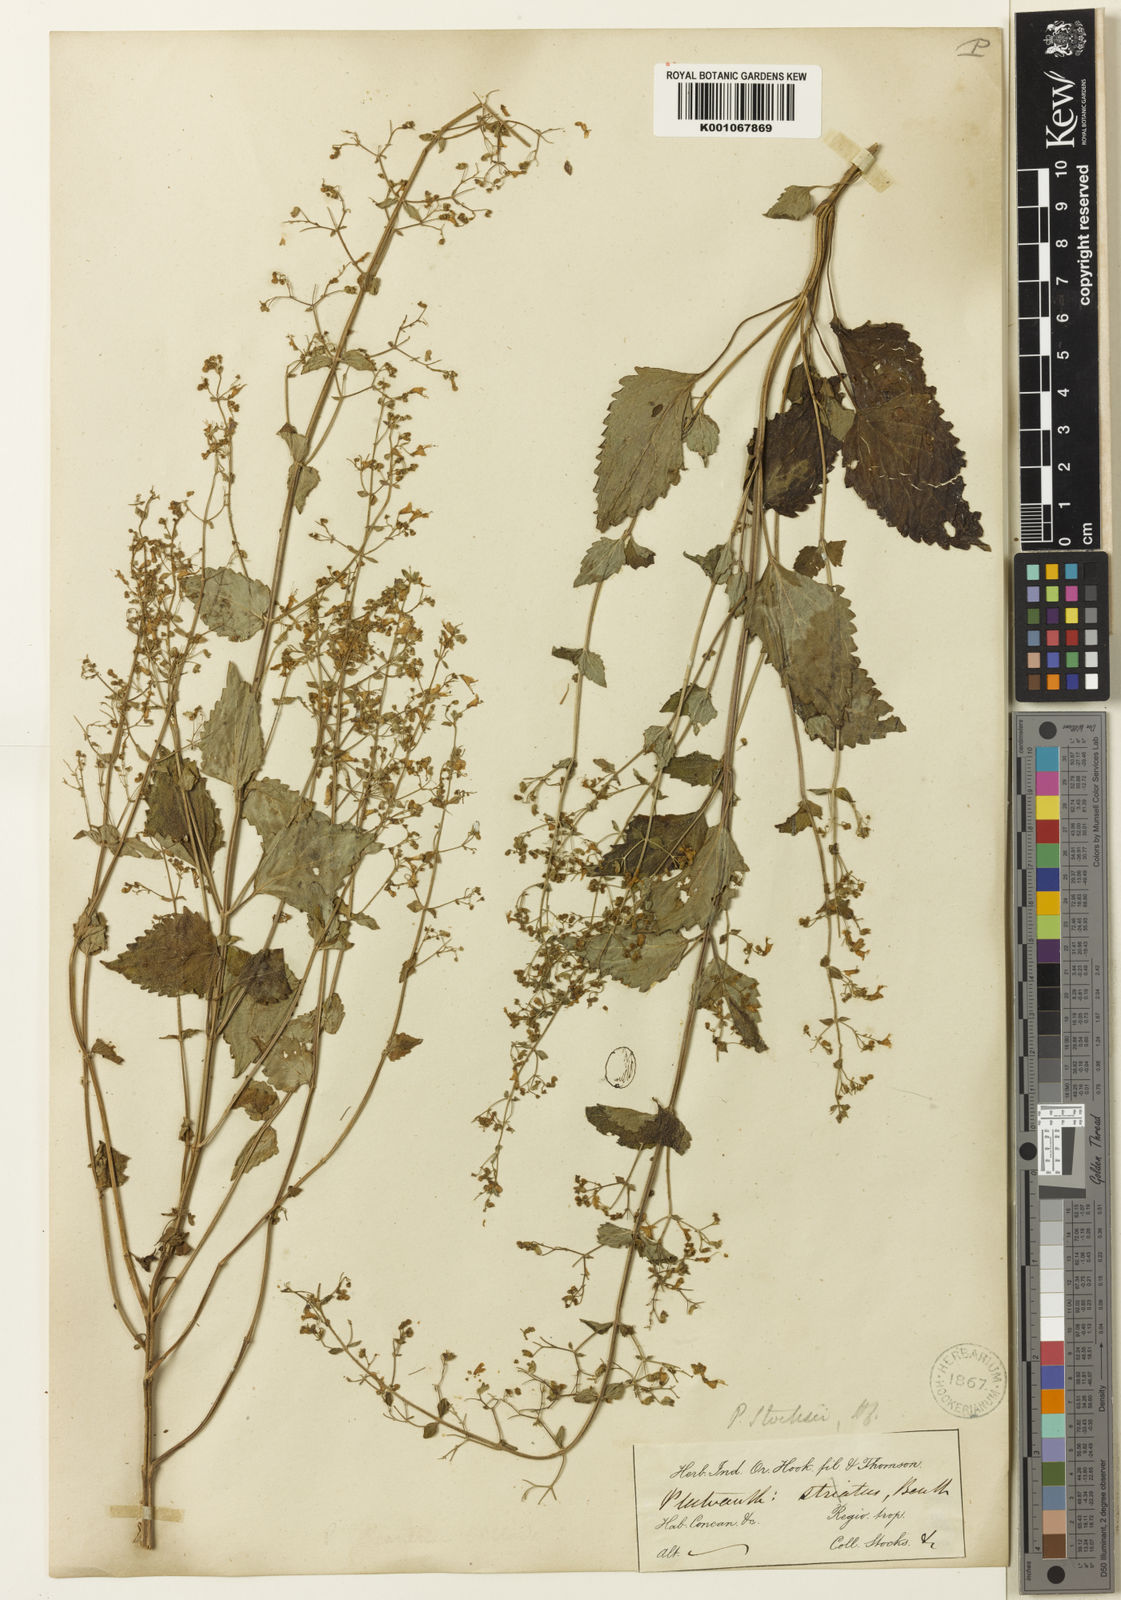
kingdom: Plantae
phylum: Tracheophyta
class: Magnoliopsida
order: Lamiales
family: Lamiaceae
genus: Isodon
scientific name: Isodon lophanthoides
